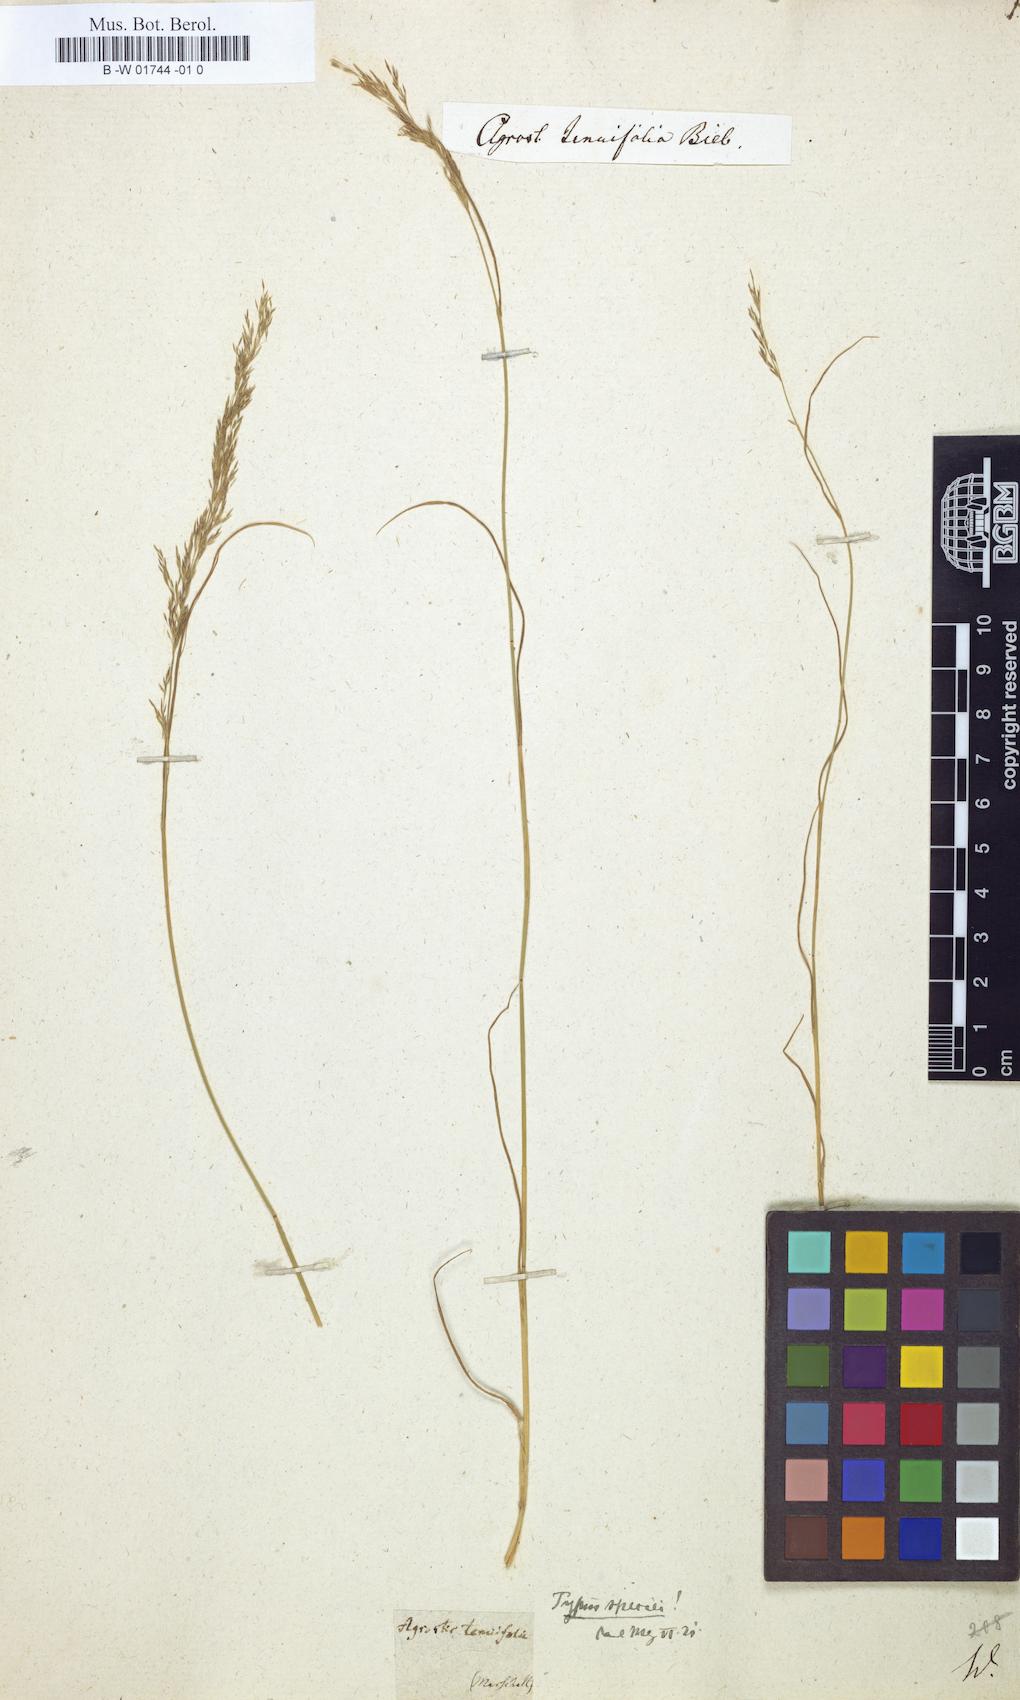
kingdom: Plantae
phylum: Tracheophyta
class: Liliopsida
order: Poales
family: Poaceae
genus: Agrostis
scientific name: Agrostis
